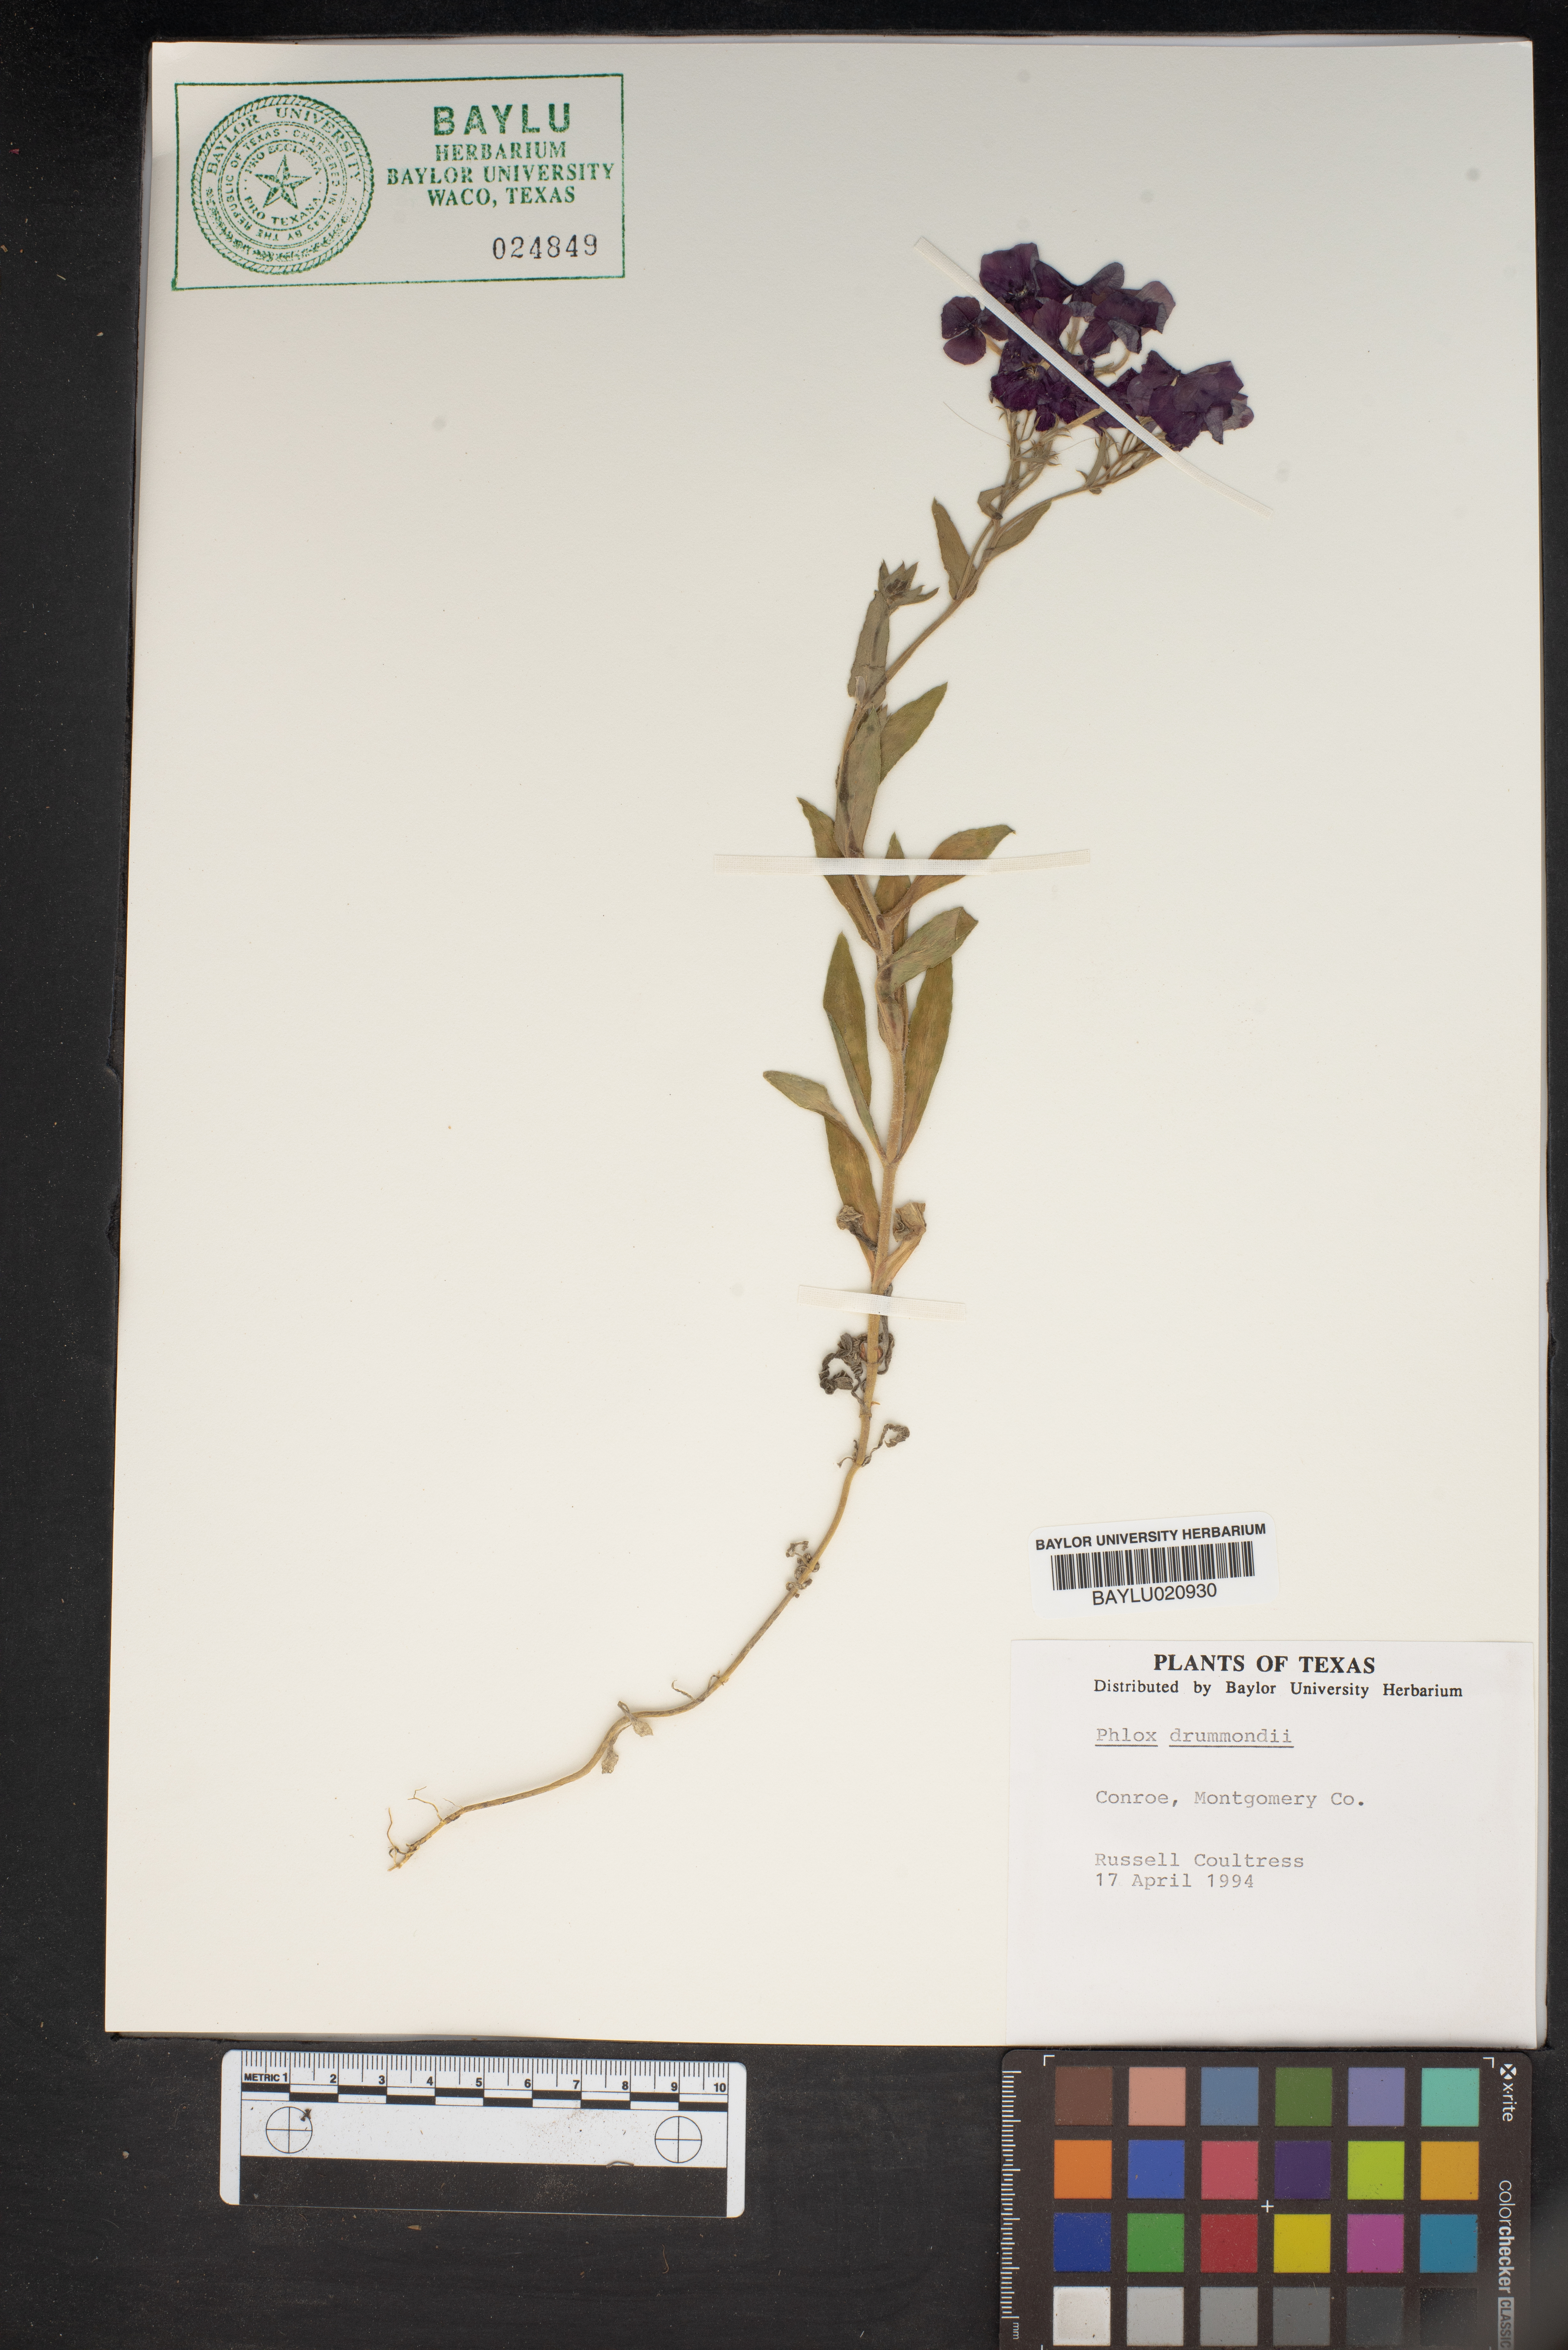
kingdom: Plantae
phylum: Tracheophyta
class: Magnoliopsida
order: Ericales
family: Polemoniaceae
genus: Phlox
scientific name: Phlox drummondii
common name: Drummond's phlox
